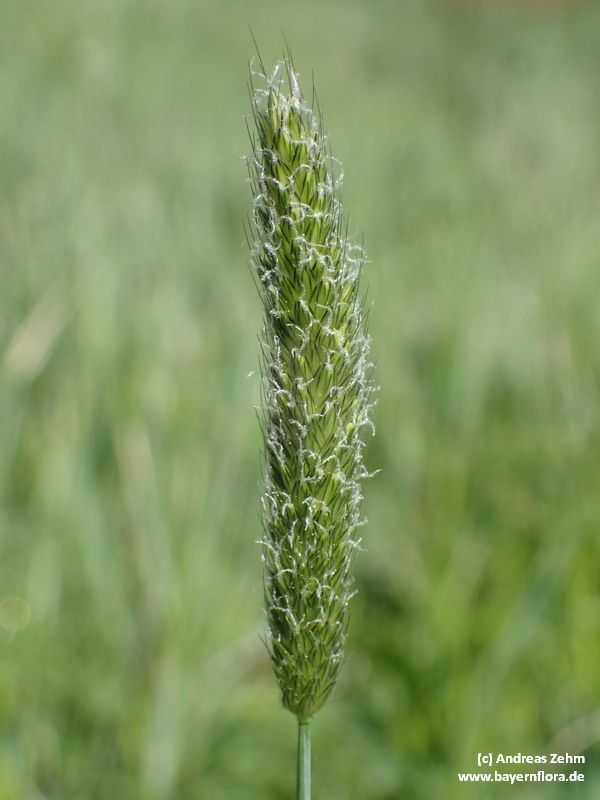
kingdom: Plantae
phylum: Tracheophyta
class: Liliopsida
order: Poales
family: Poaceae
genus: Alopecurus
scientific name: Alopecurus pratensis
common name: Meadow foxtail
